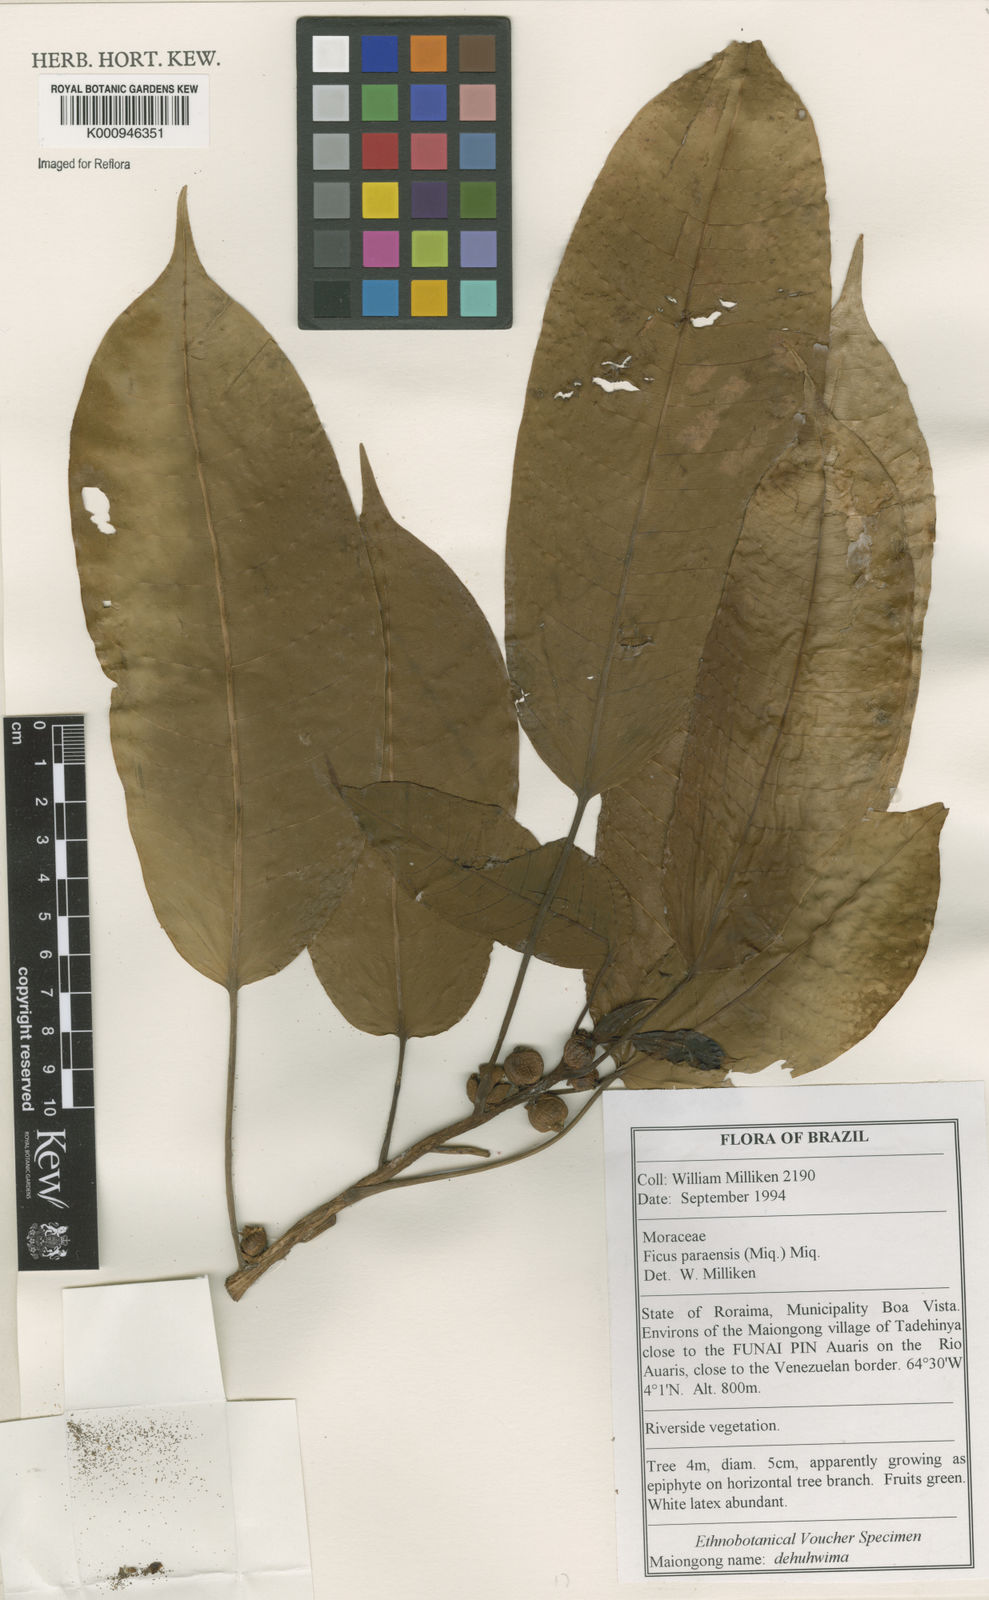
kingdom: Plantae
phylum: Tracheophyta
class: Magnoliopsida
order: Rosales
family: Moraceae
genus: Ficus
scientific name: Ficus paraensis
